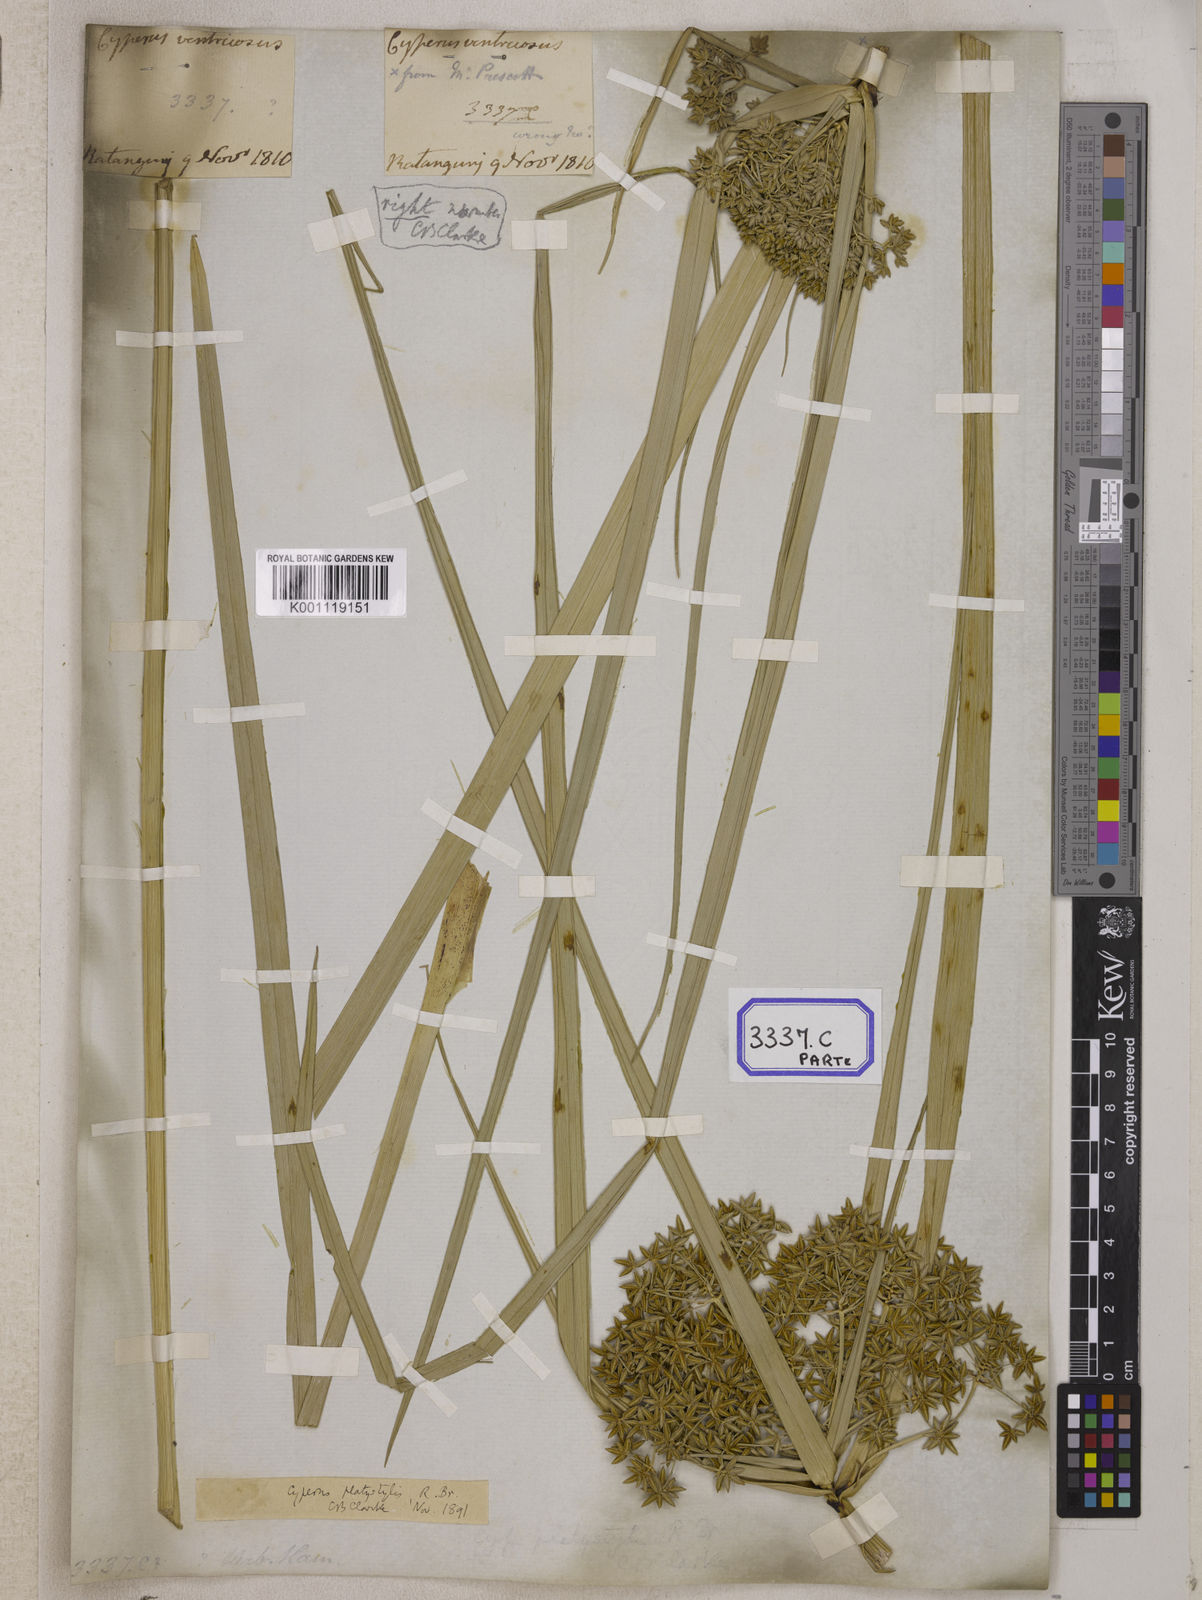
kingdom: Plantae
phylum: Tracheophyta
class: Liliopsida
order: Poales
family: Cyperaceae
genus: Cyperus
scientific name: Cyperus
